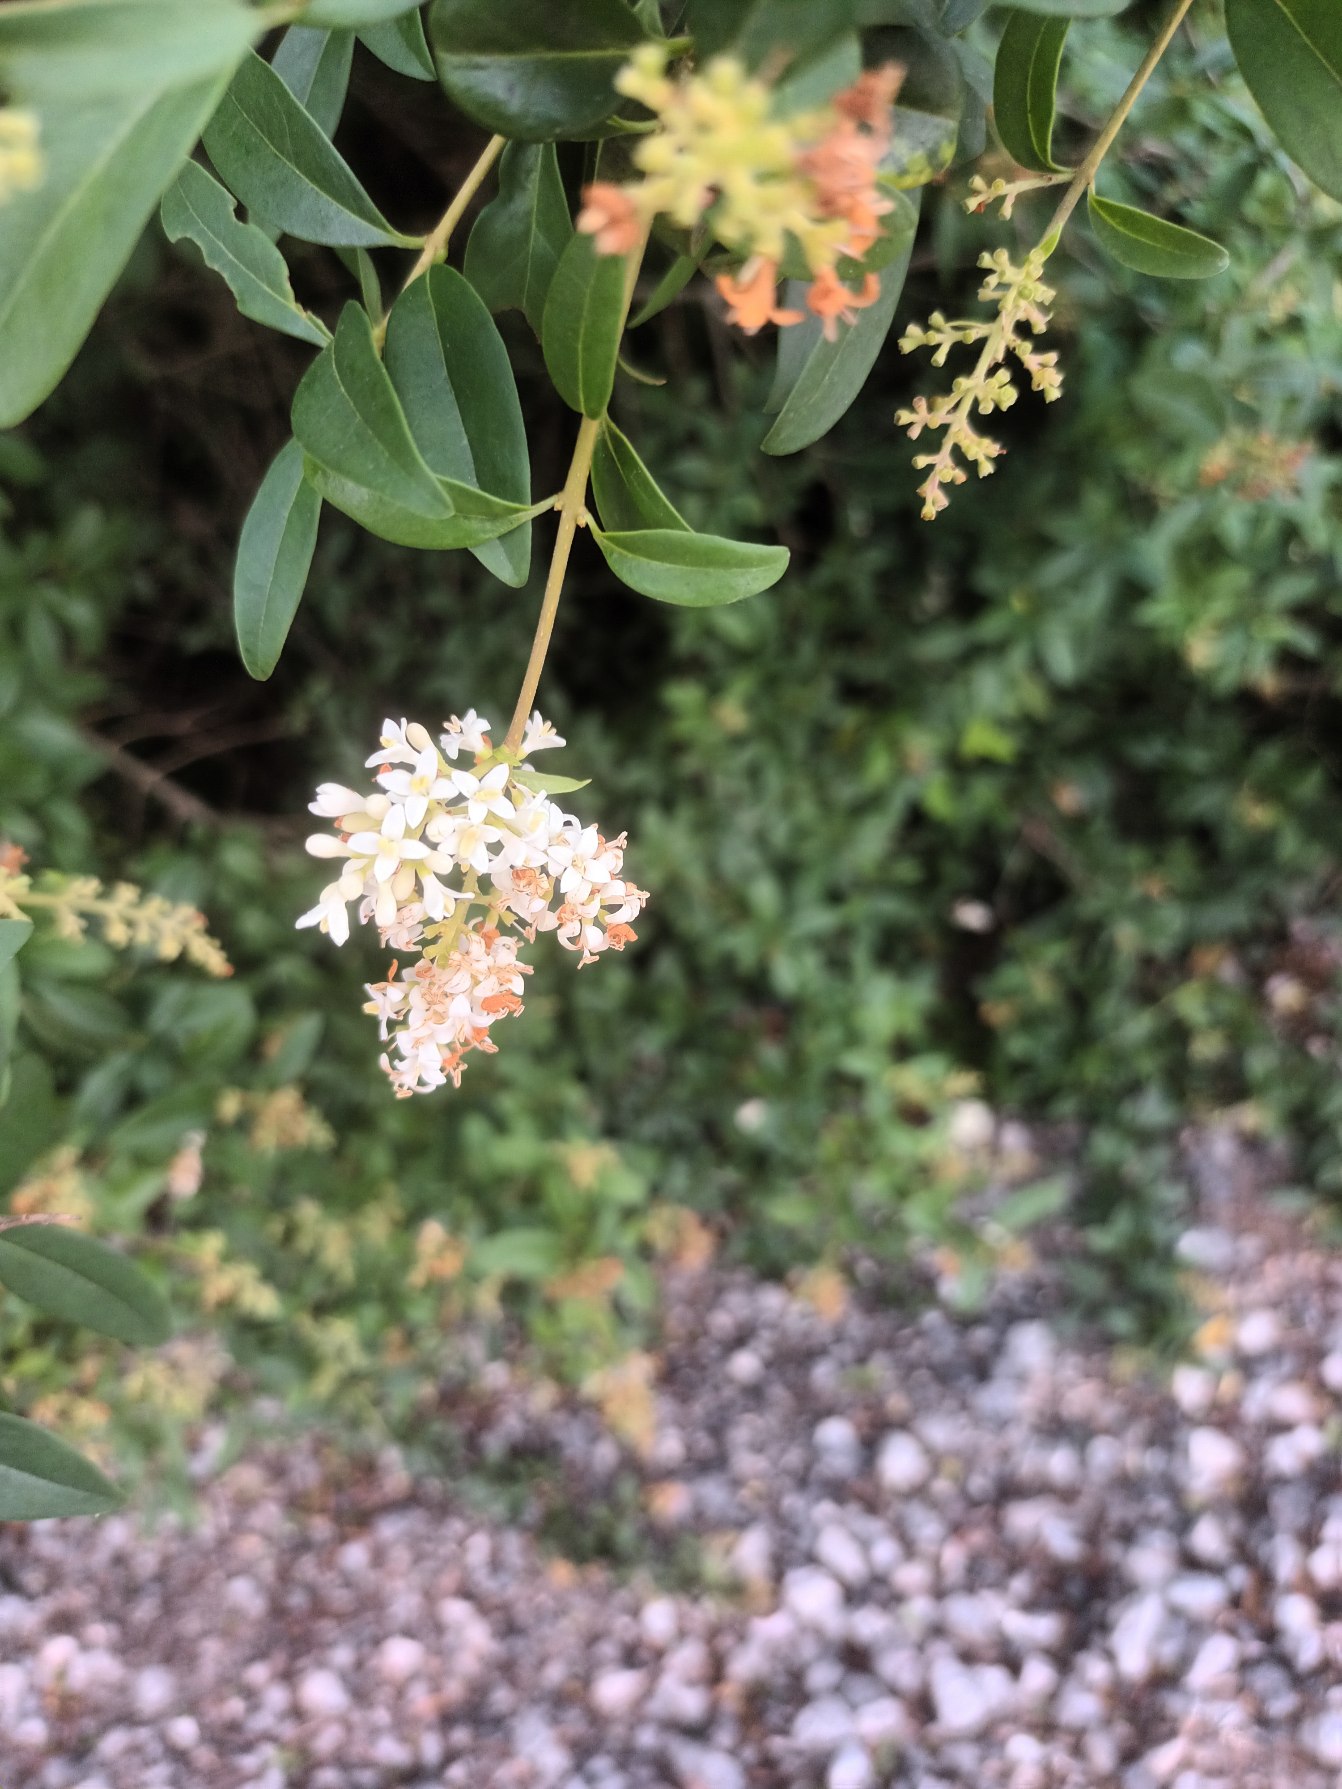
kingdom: Plantae
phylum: Tracheophyta
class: Magnoliopsida
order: Lamiales
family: Oleaceae
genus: Ligustrum
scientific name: Ligustrum vulgare
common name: Liguster
